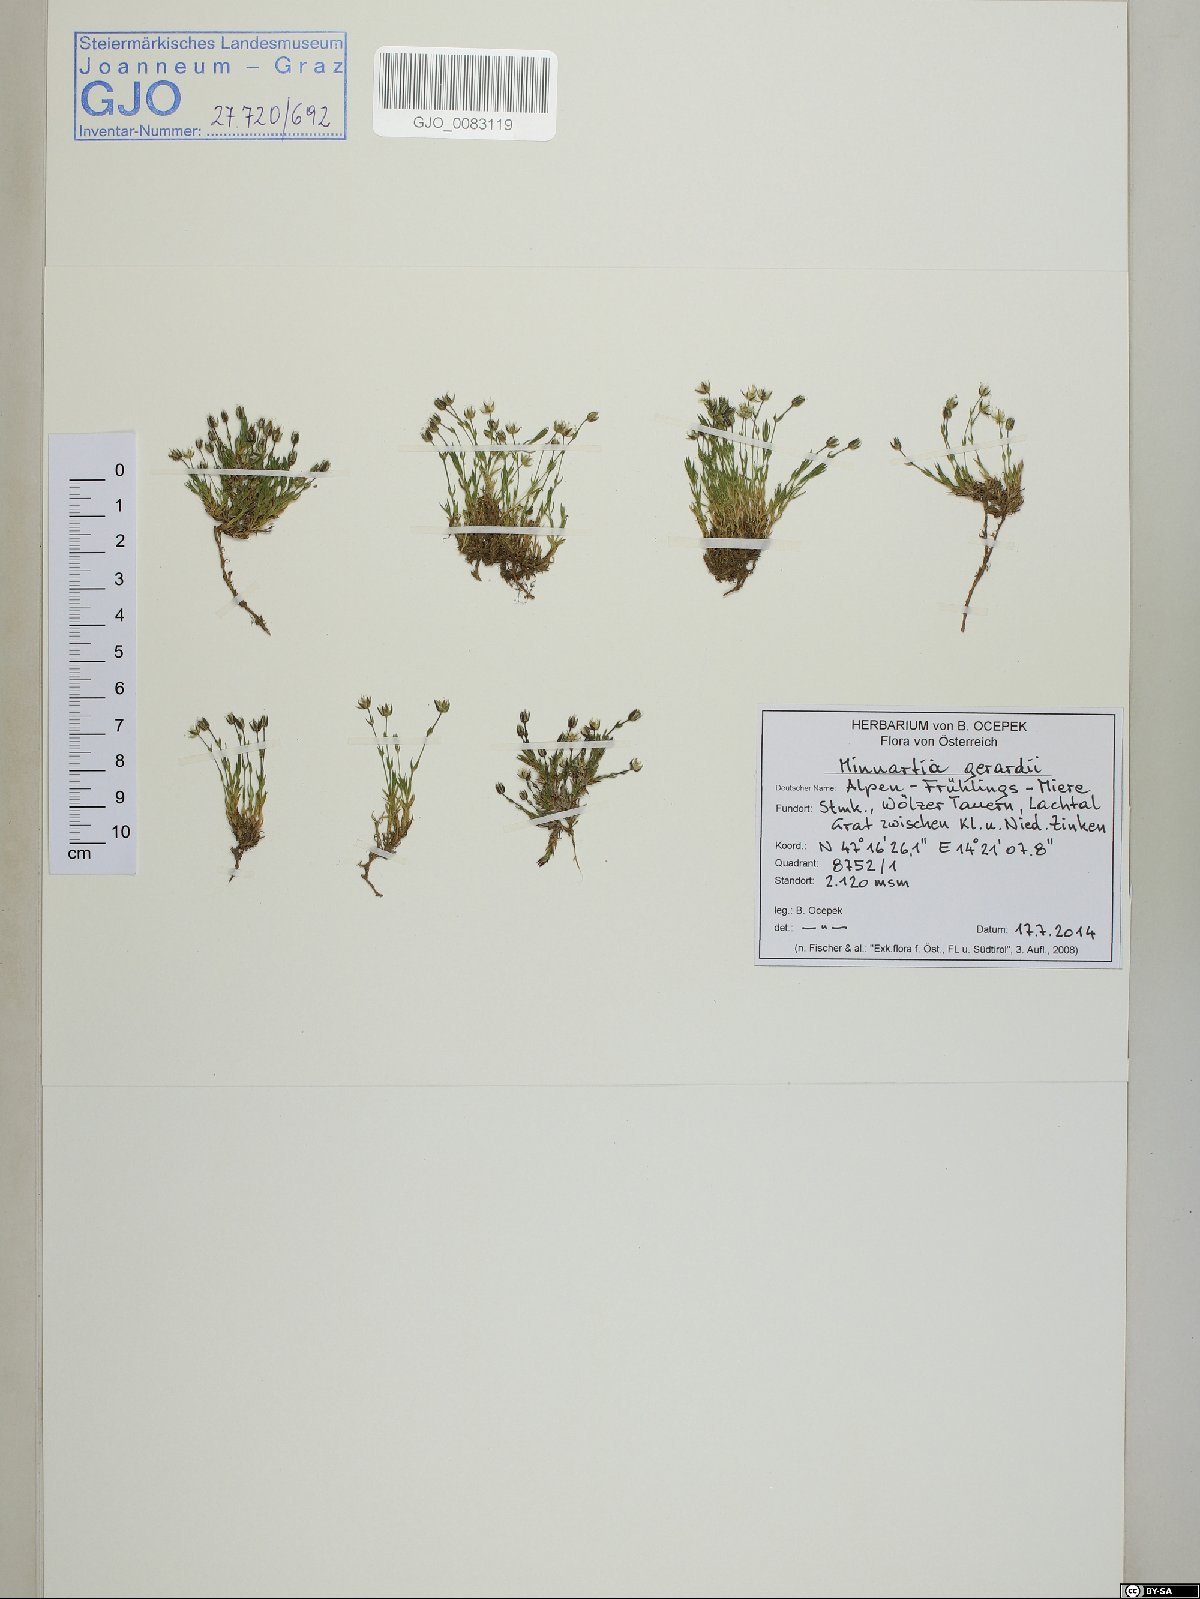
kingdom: Plantae
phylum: Tracheophyta
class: Magnoliopsida
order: Caryophyllales
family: Caryophyllaceae
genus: Sabulina
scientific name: Sabulina verna
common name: Spring sandwort
